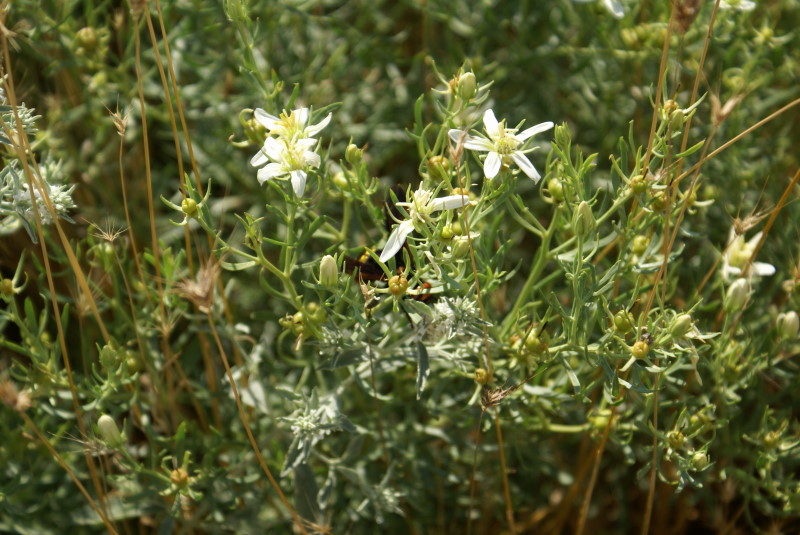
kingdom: Plantae
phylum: Tracheophyta
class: Magnoliopsida
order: Sapindales
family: Tetradiclidaceae
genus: Peganum
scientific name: Peganum harmala
